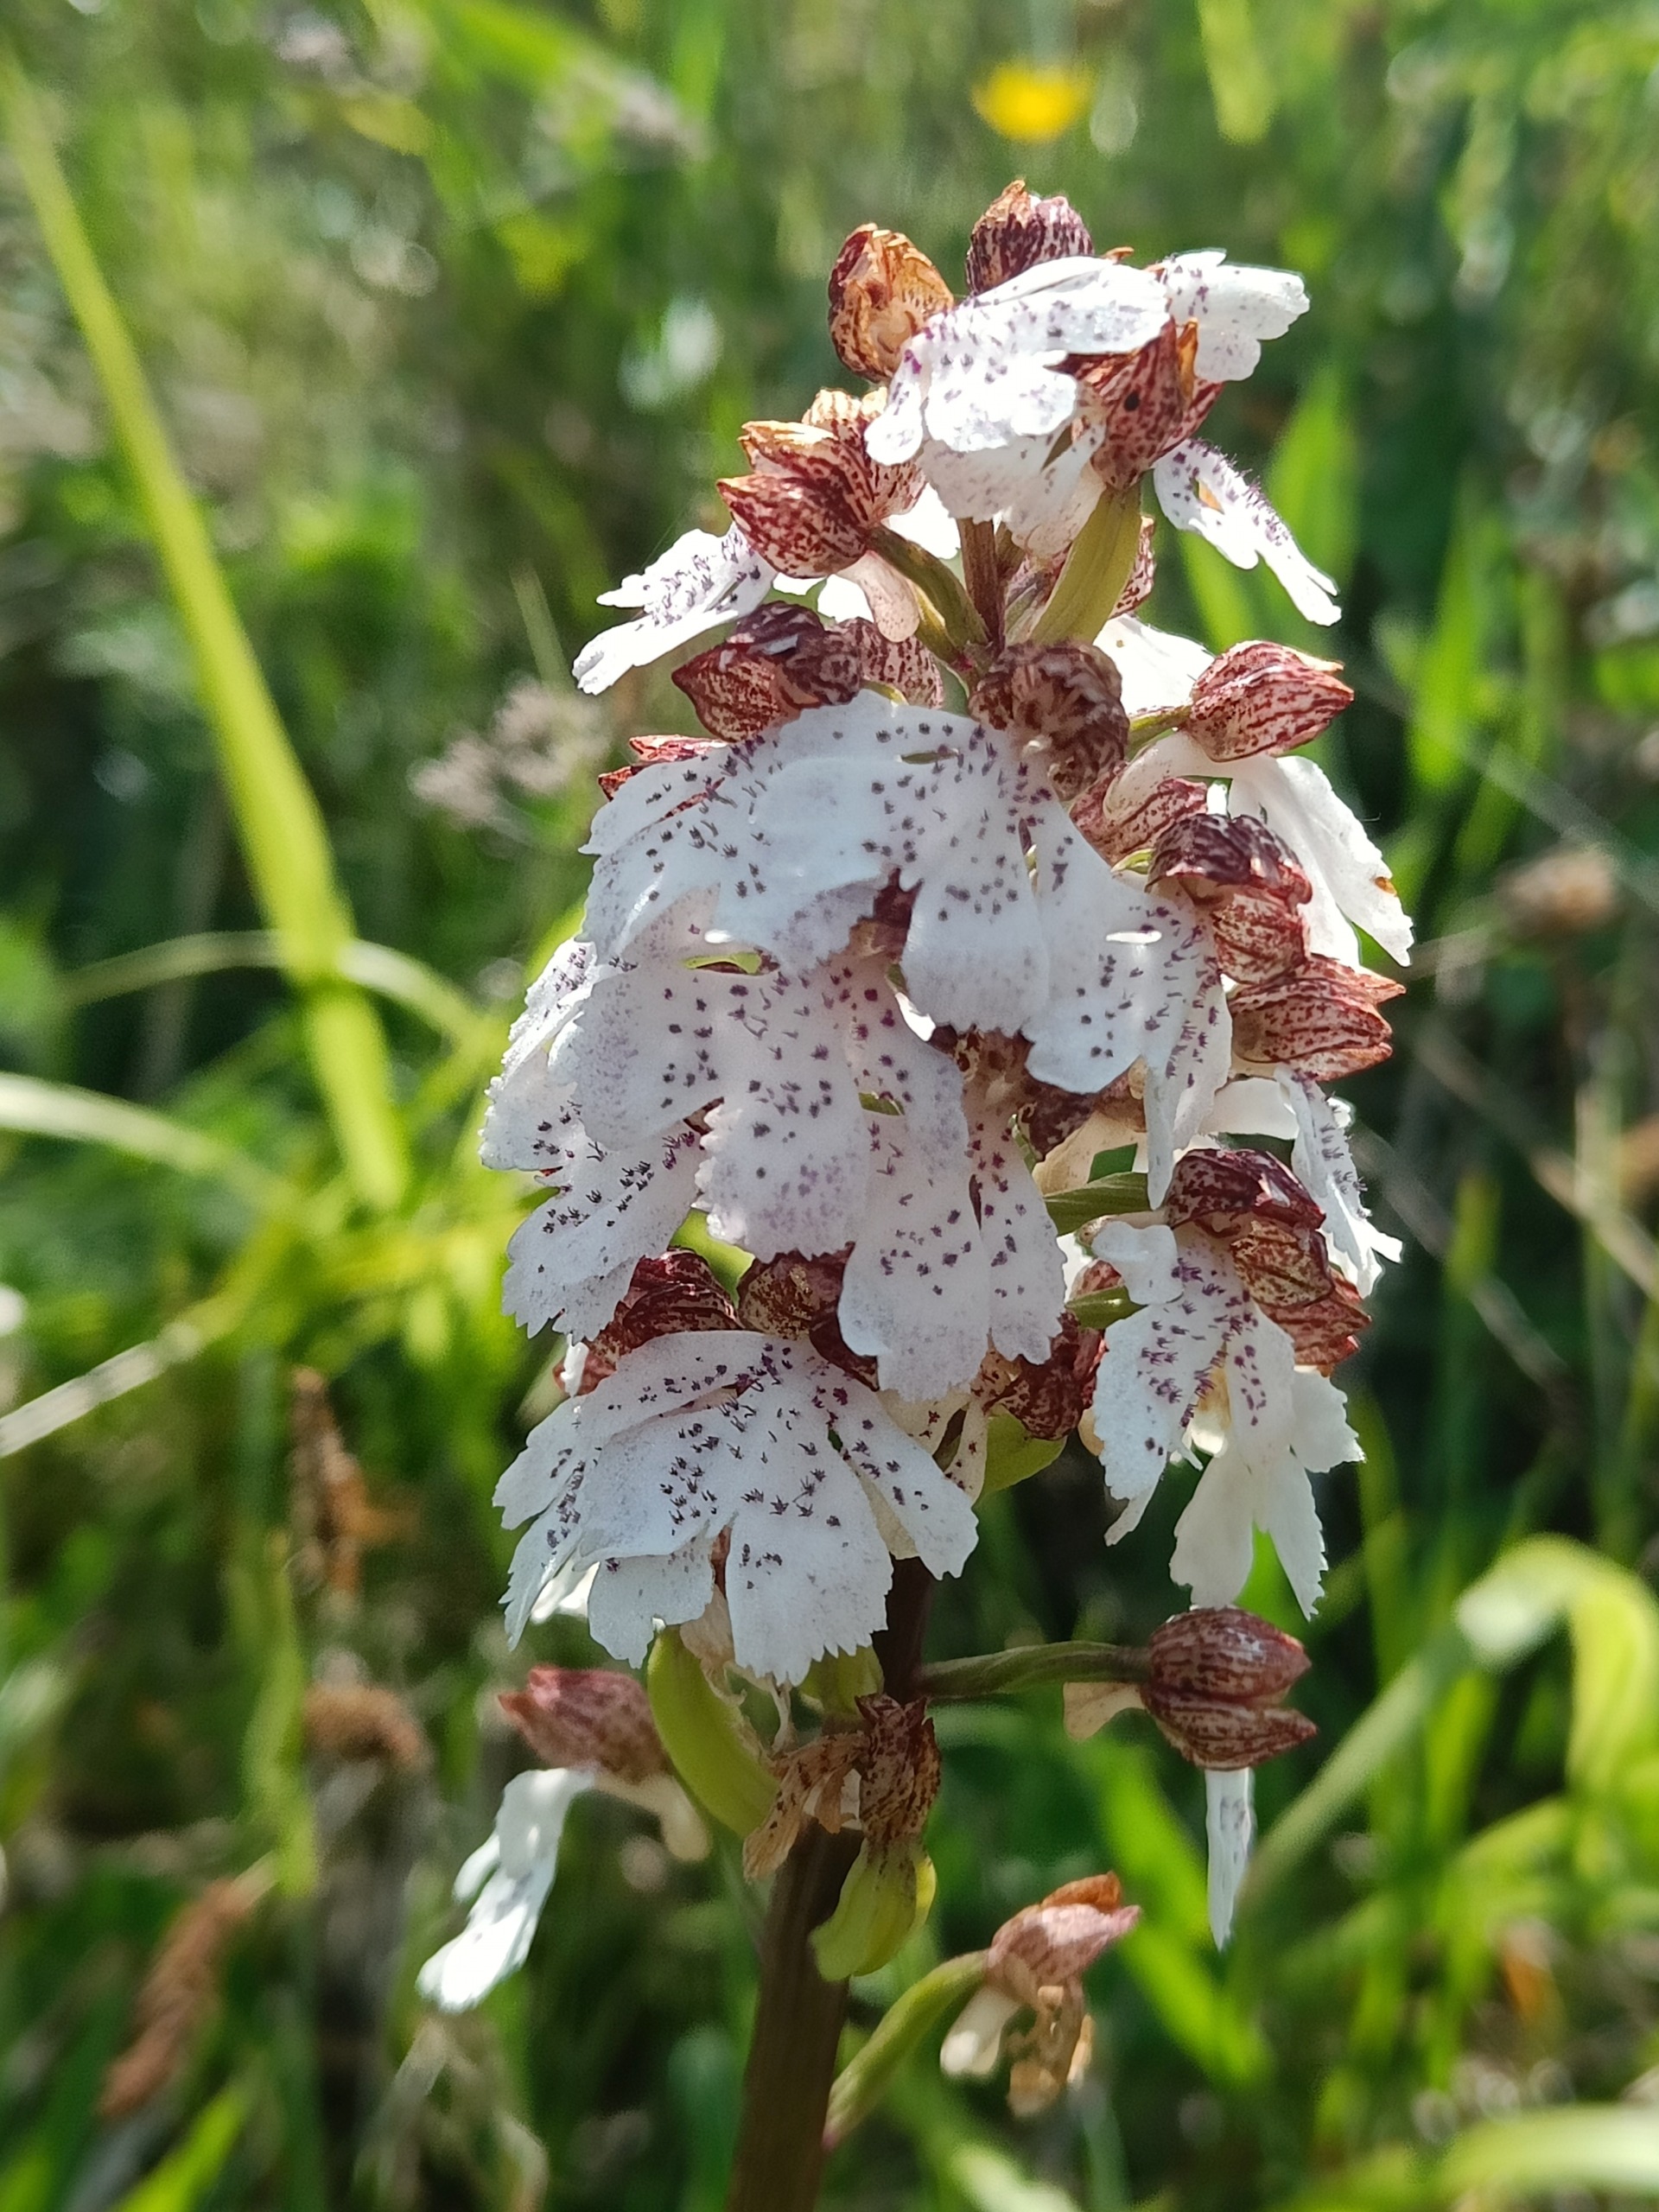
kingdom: Plantae
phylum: Tracheophyta
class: Liliopsida
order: Asparagales
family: Orchidaceae
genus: Orchis
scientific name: Orchis purpurea
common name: Stor gøgeurt
